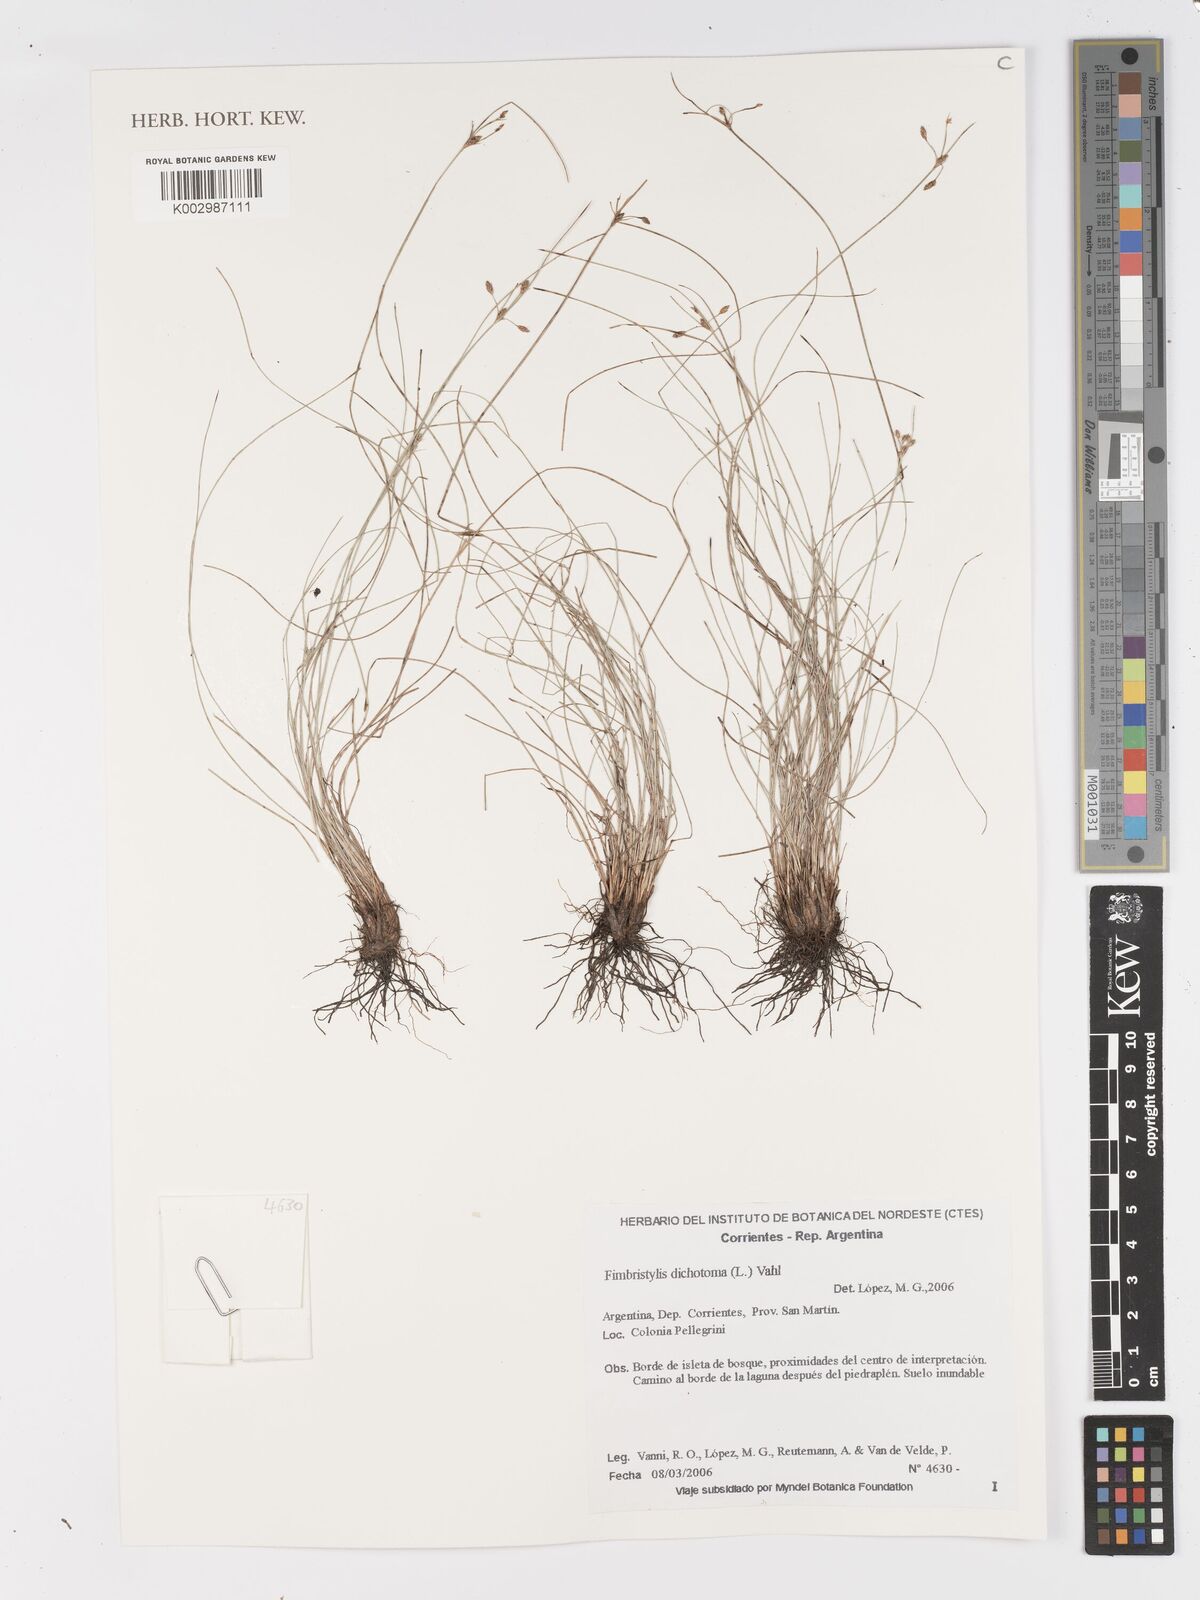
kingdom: Plantae
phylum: Tracheophyta
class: Liliopsida
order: Poales
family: Cyperaceae
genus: Fimbristylis
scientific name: Fimbristylis dichotoma
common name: Forked fimbry
